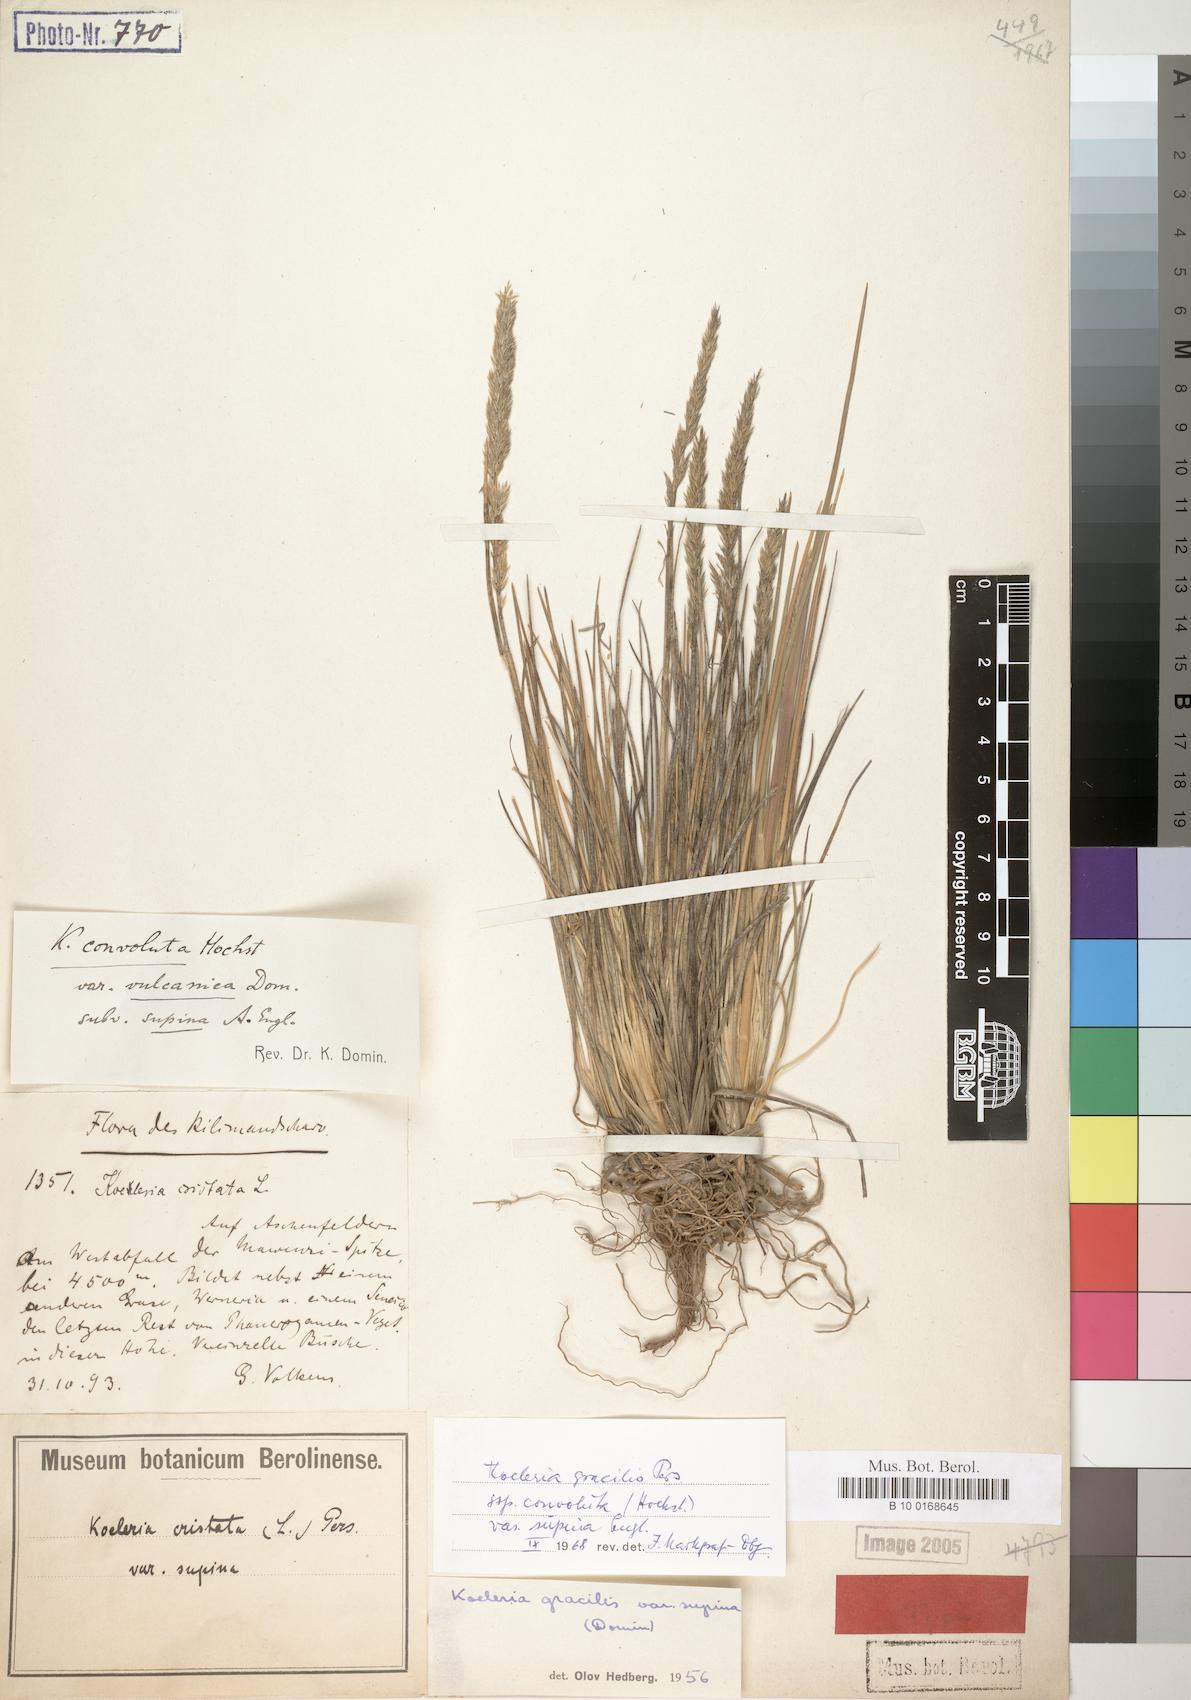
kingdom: Plantae
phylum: Tracheophyta
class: Liliopsida
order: Poales
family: Poaceae
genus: Poa
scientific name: Poa kilimanjarica
